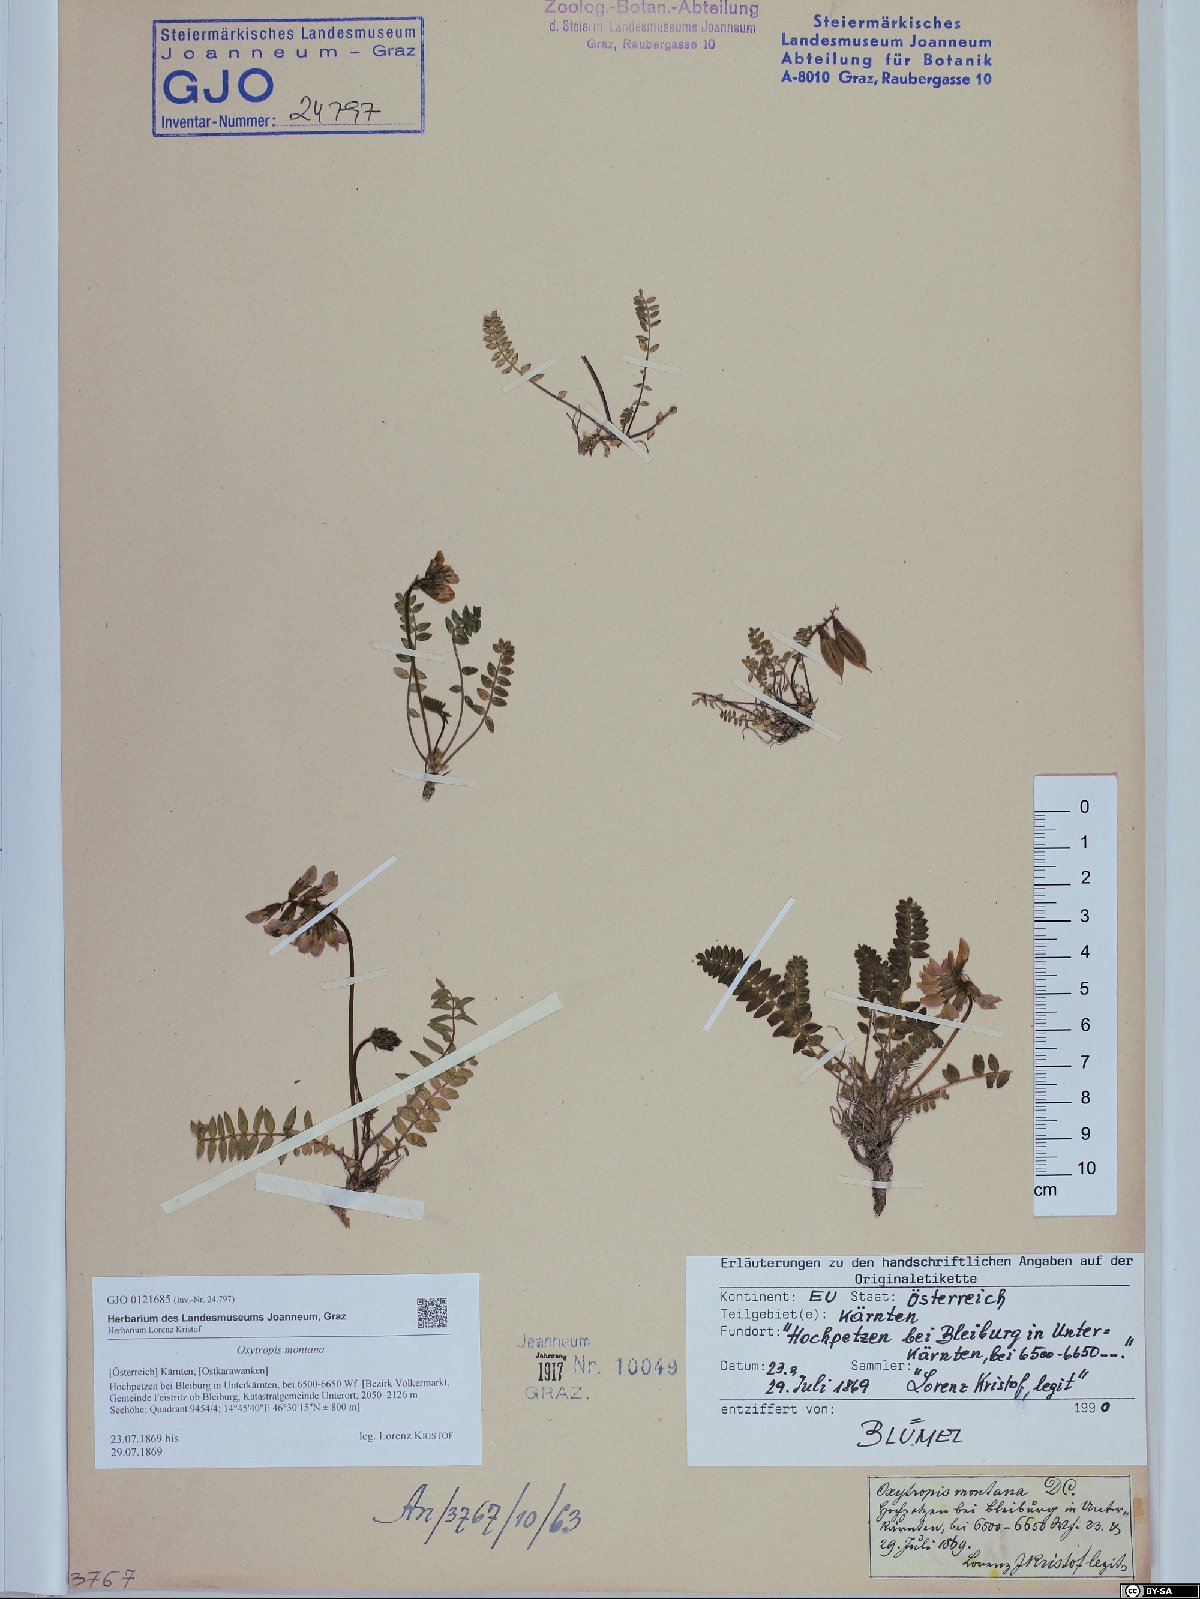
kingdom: Plantae
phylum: Tracheophyta
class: Magnoliopsida
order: Fabales
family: Fabaceae
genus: Oxytropis
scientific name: Oxytropis montana
